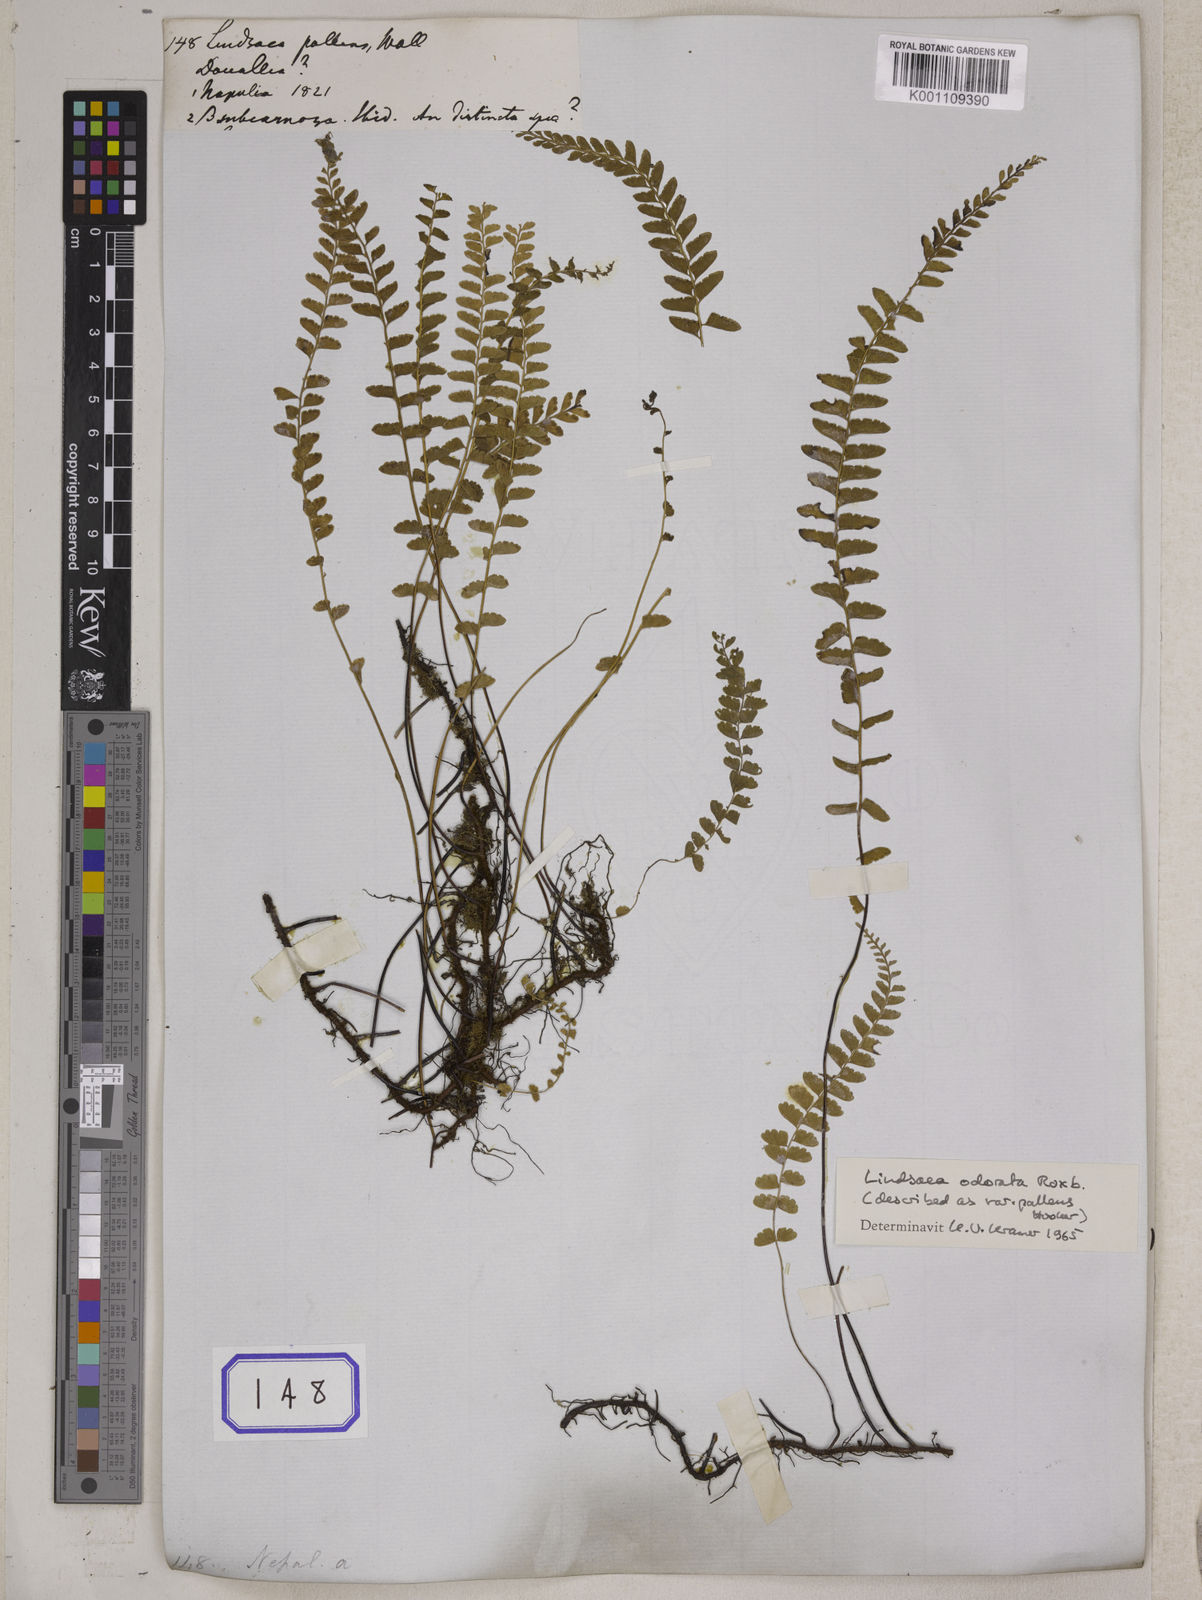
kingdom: Plantae
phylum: Tracheophyta
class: Polypodiopsida
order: Polypodiales
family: Lindsaeaceae
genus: Lindsaea
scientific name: Lindsaea cultrata
